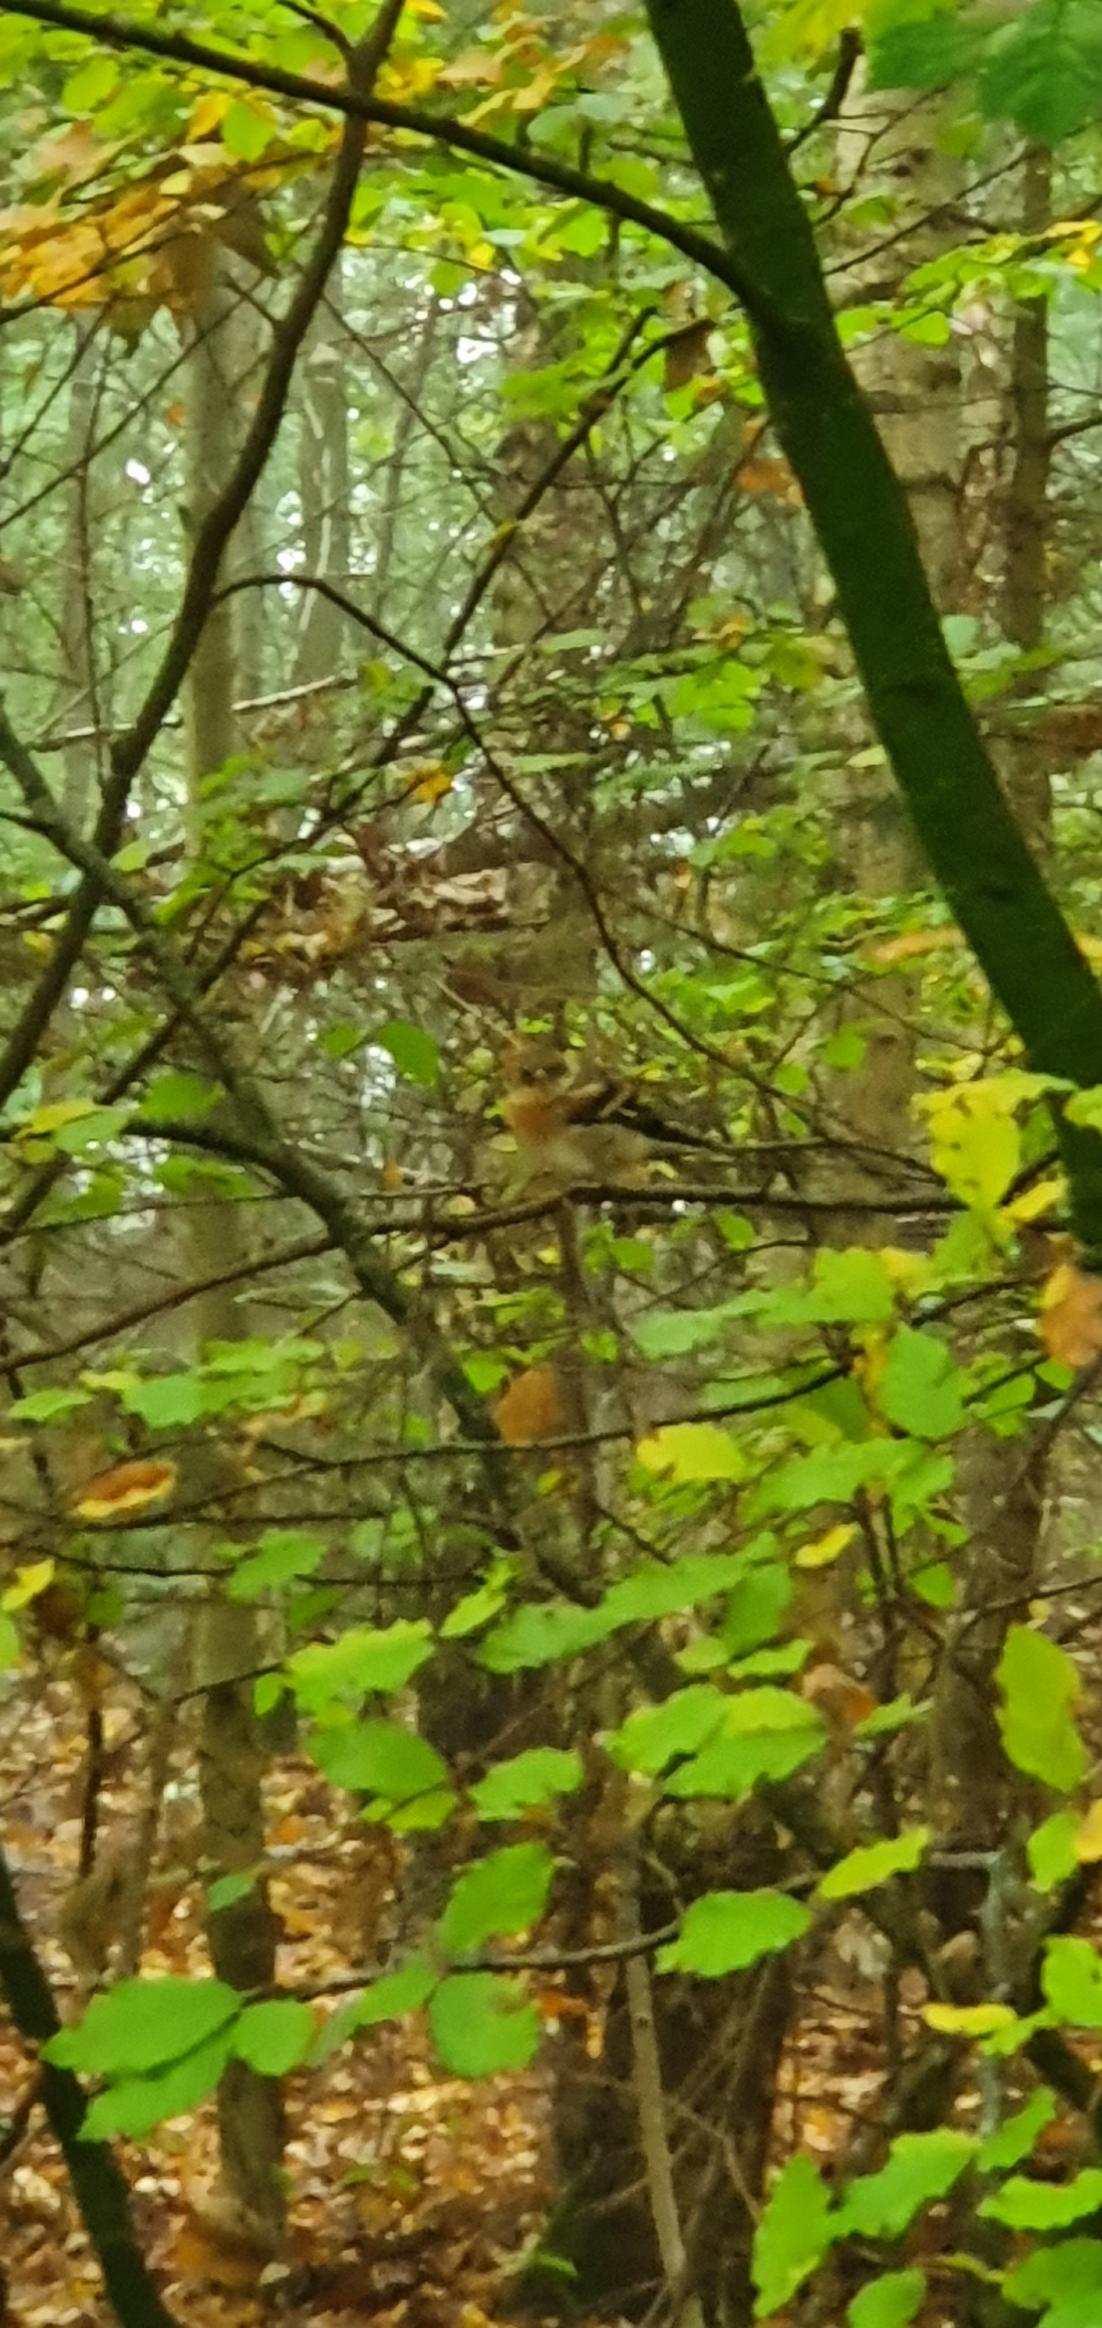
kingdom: Animalia
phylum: Chordata
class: Aves
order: Passeriformes
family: Fringillidae
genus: Fringilla
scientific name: Fringilla montifringilla
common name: Kvækerfinke
